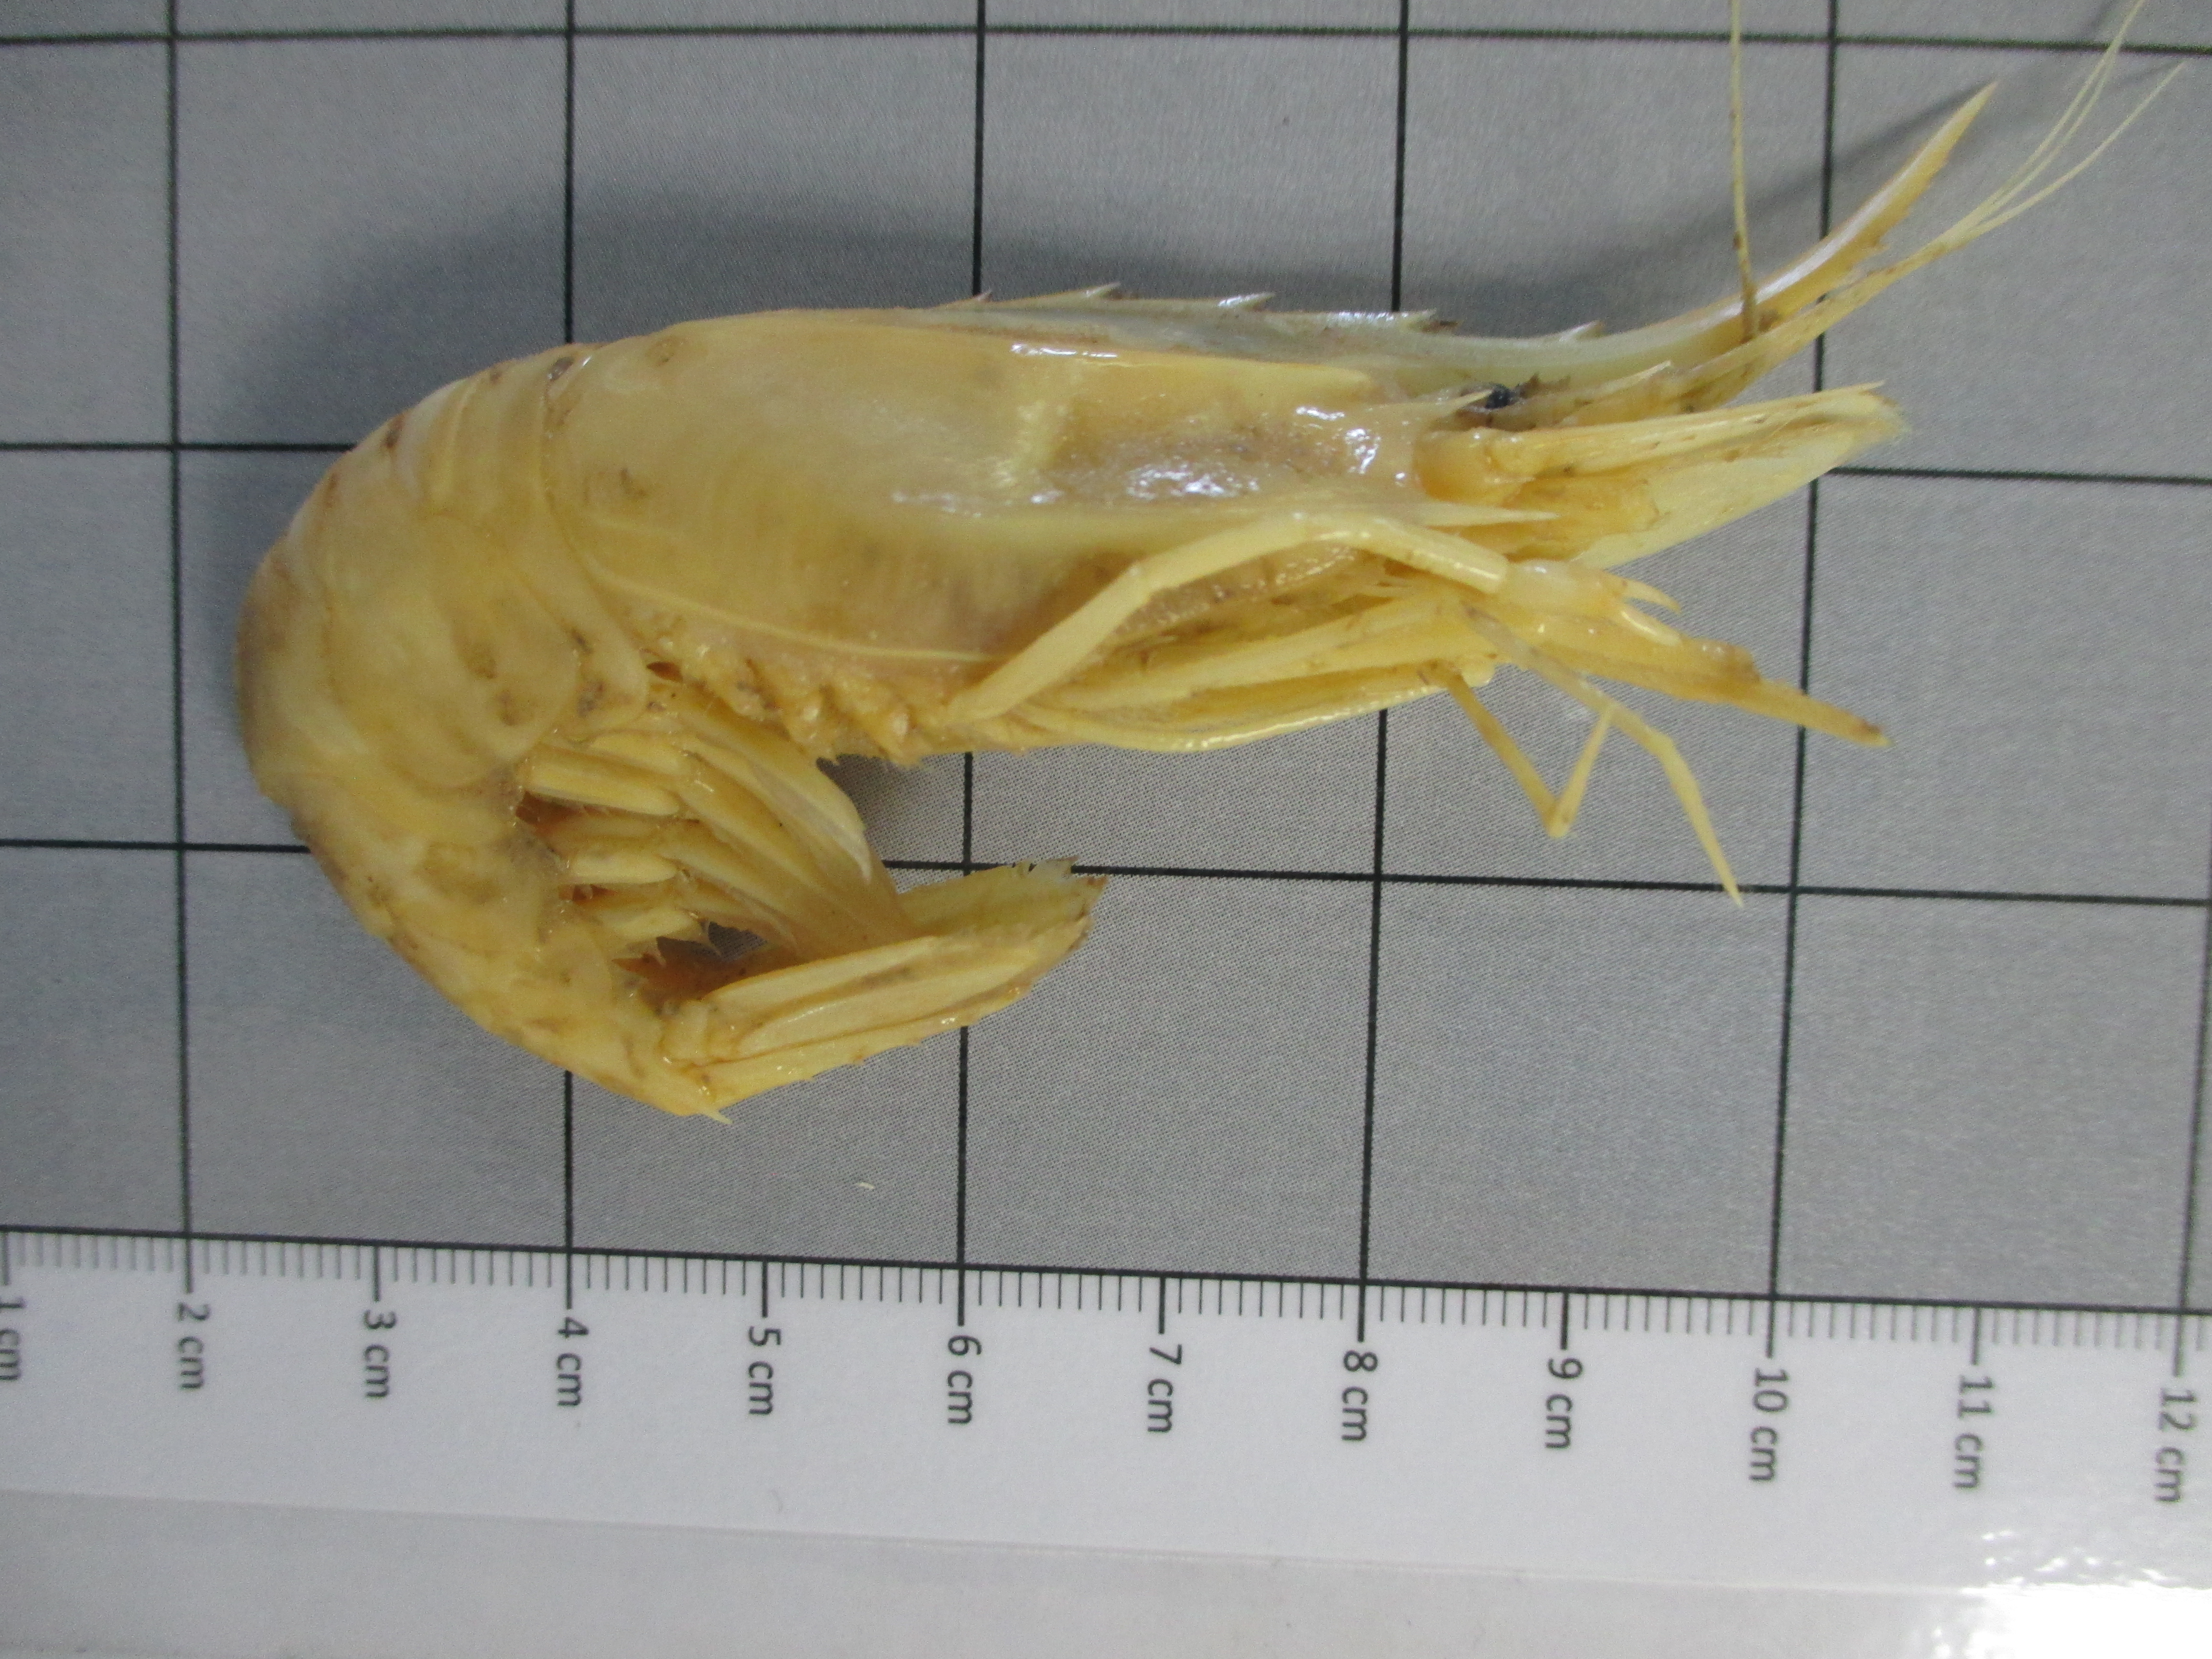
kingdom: Animalia
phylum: Arthropoda
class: Malacostraca
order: Decapoda
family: Pandalidae
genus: Heterocarpus
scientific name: Heterocarpus laevigatus
